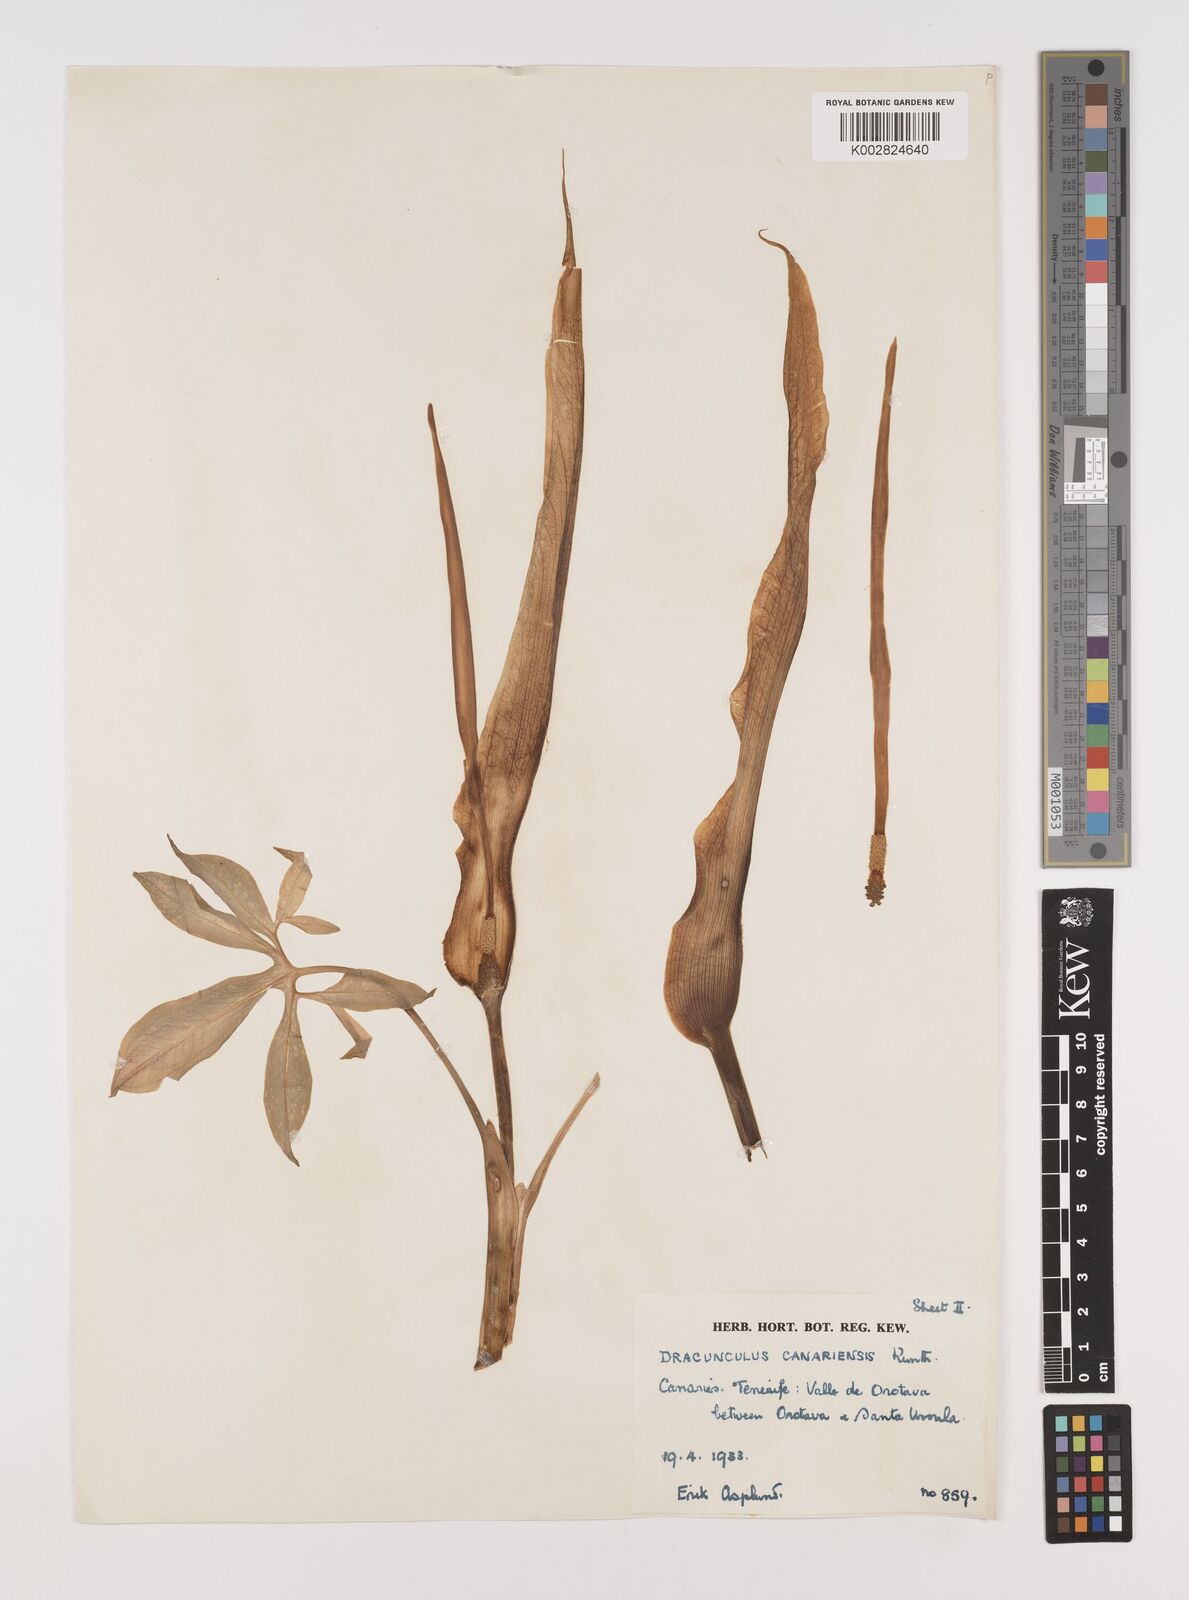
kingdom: Plantae
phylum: Tracheophyta
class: Liliopsida
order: Alismatales
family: Araceae
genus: Dracunculus
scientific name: Dracunculus canariensis
